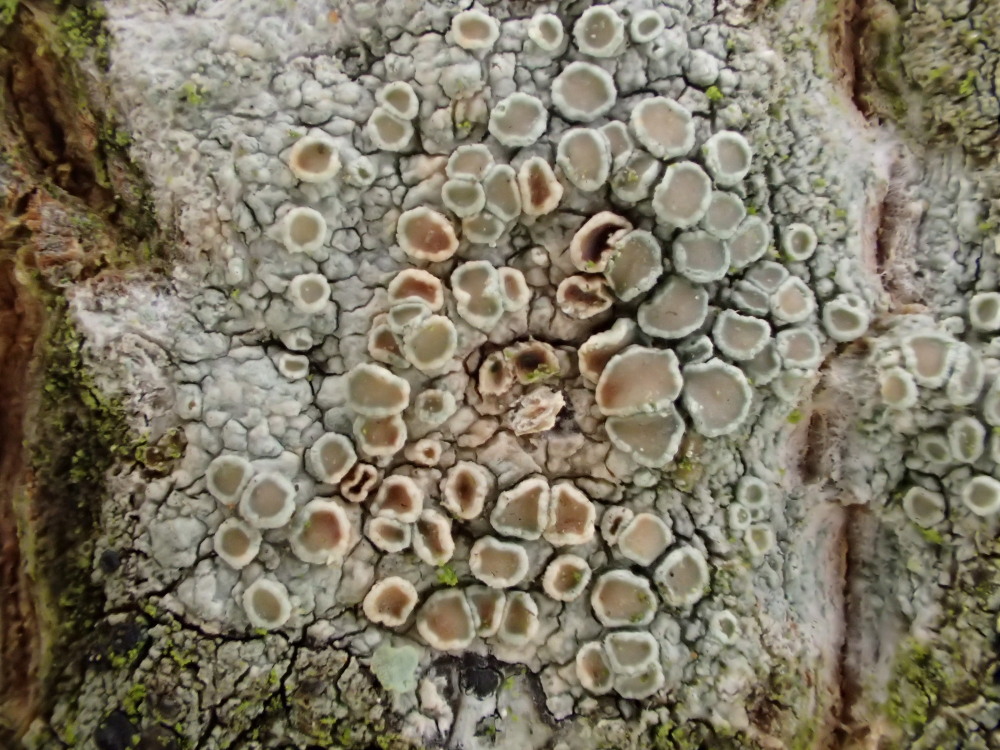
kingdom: Fungi
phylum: Ascomycota
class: Lecanoromycetes
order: Lecanorales
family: Lecanoraceae
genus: Lecanora
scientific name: Lecanora chlarotera
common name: brun kantskivelav
